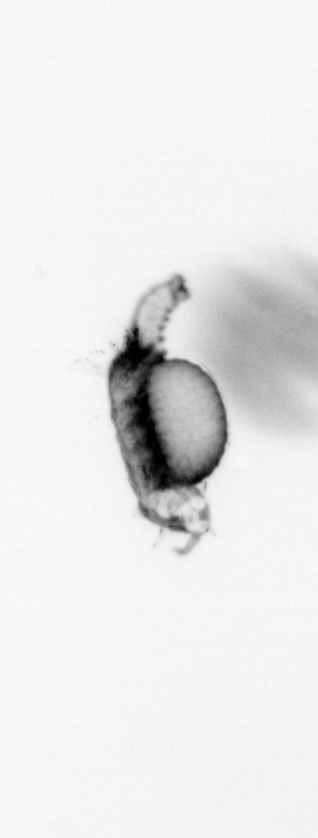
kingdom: Animalia
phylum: Annelida
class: Polychaeta
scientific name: Polychaeta
